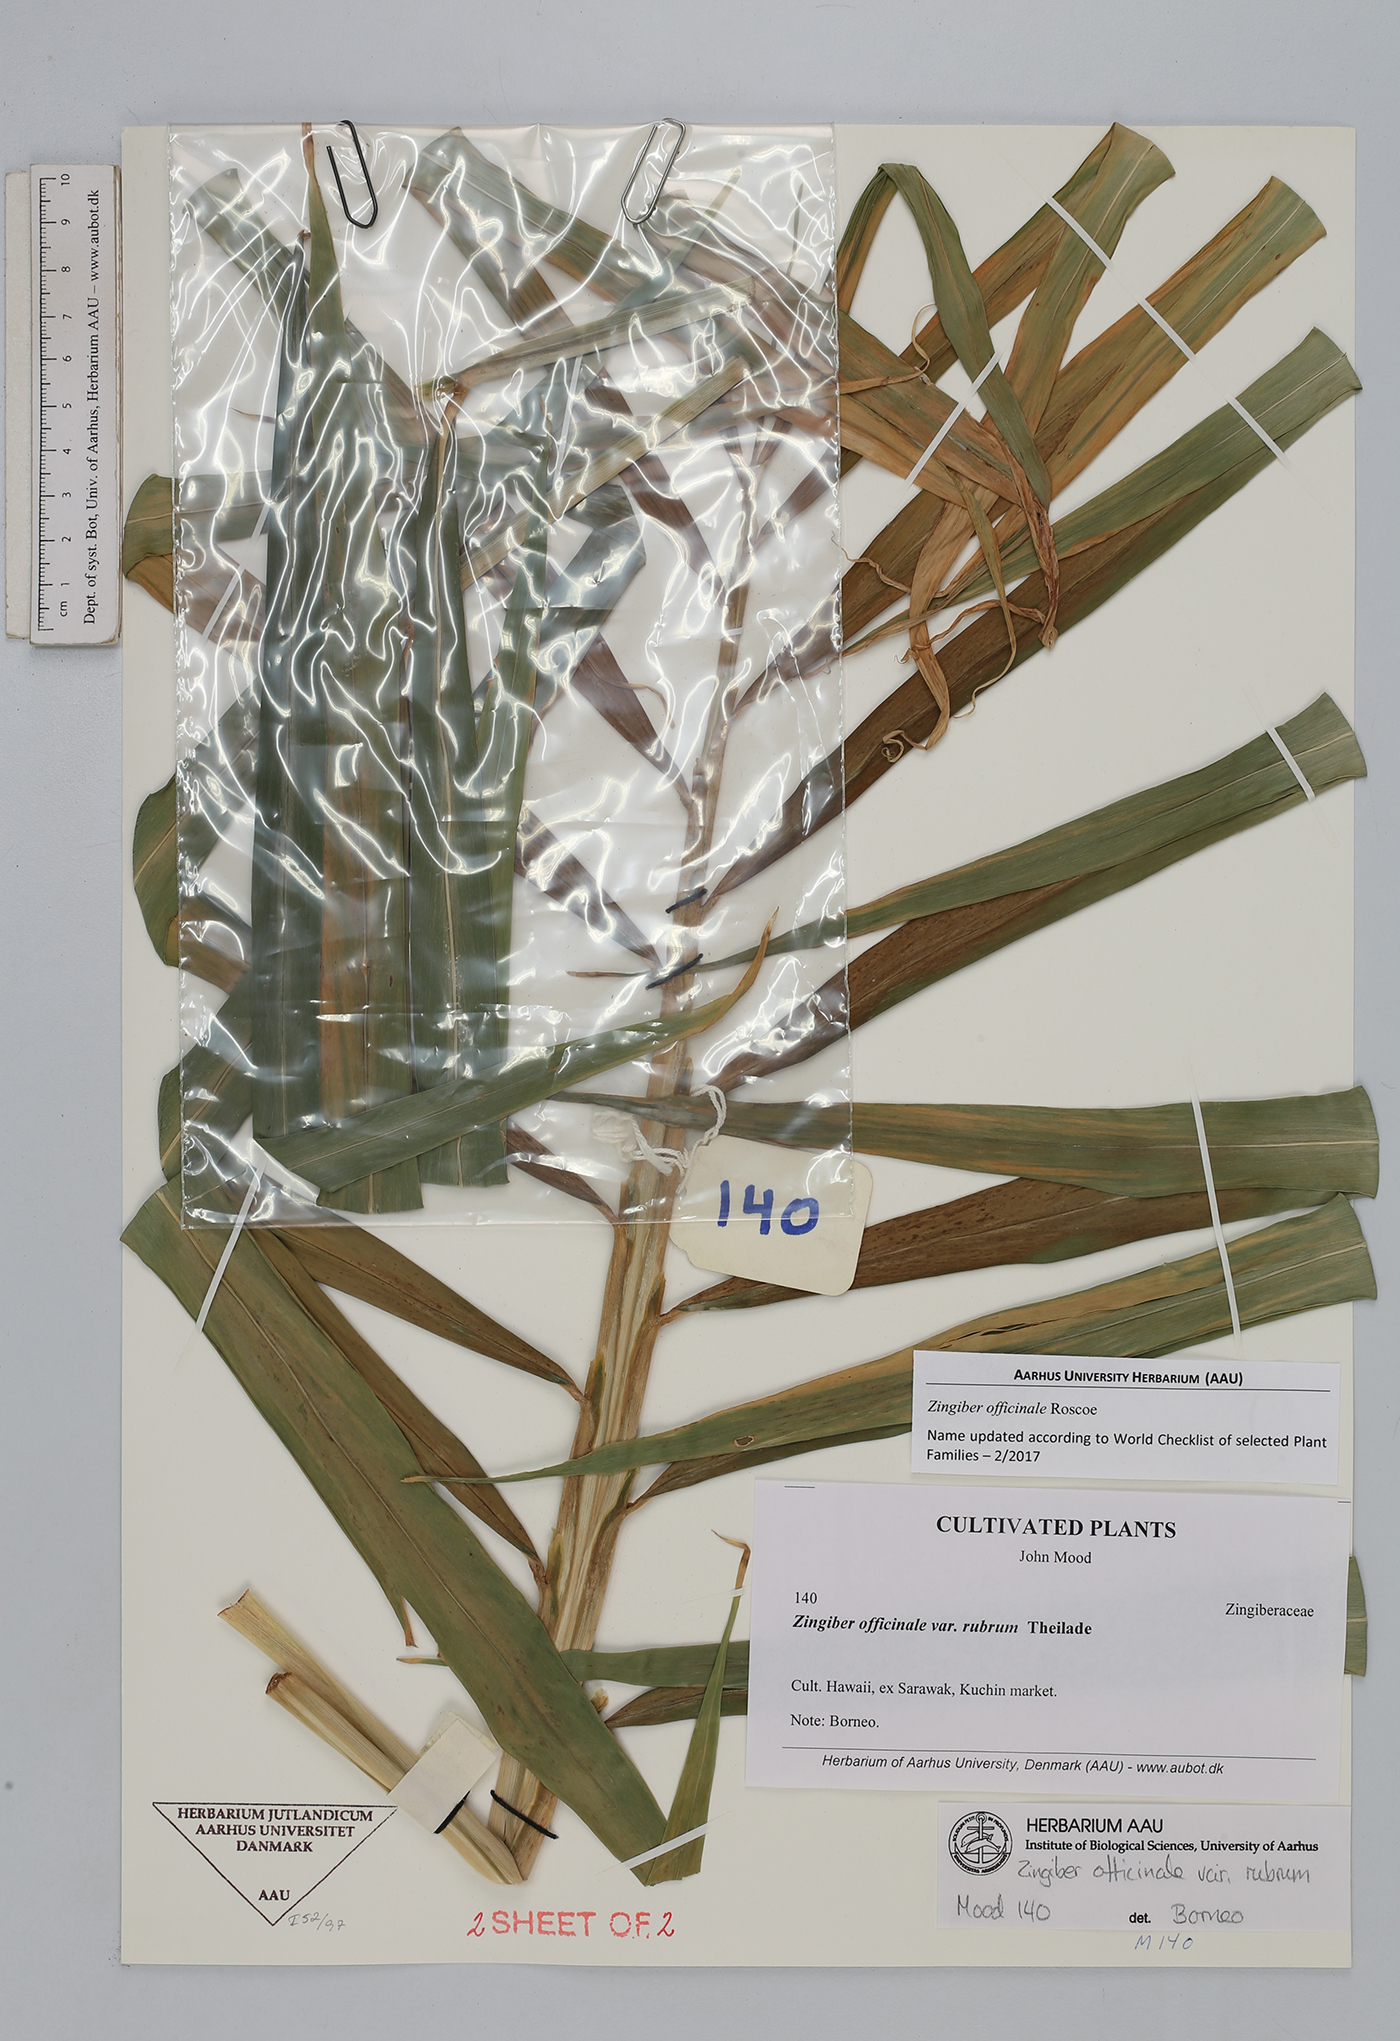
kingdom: Plantae
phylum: Tracheophyta
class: Liliopsida
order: Zingiberales
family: Zingiberaceae
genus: Zingiber
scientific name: Zingiber officinale
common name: Ginger
